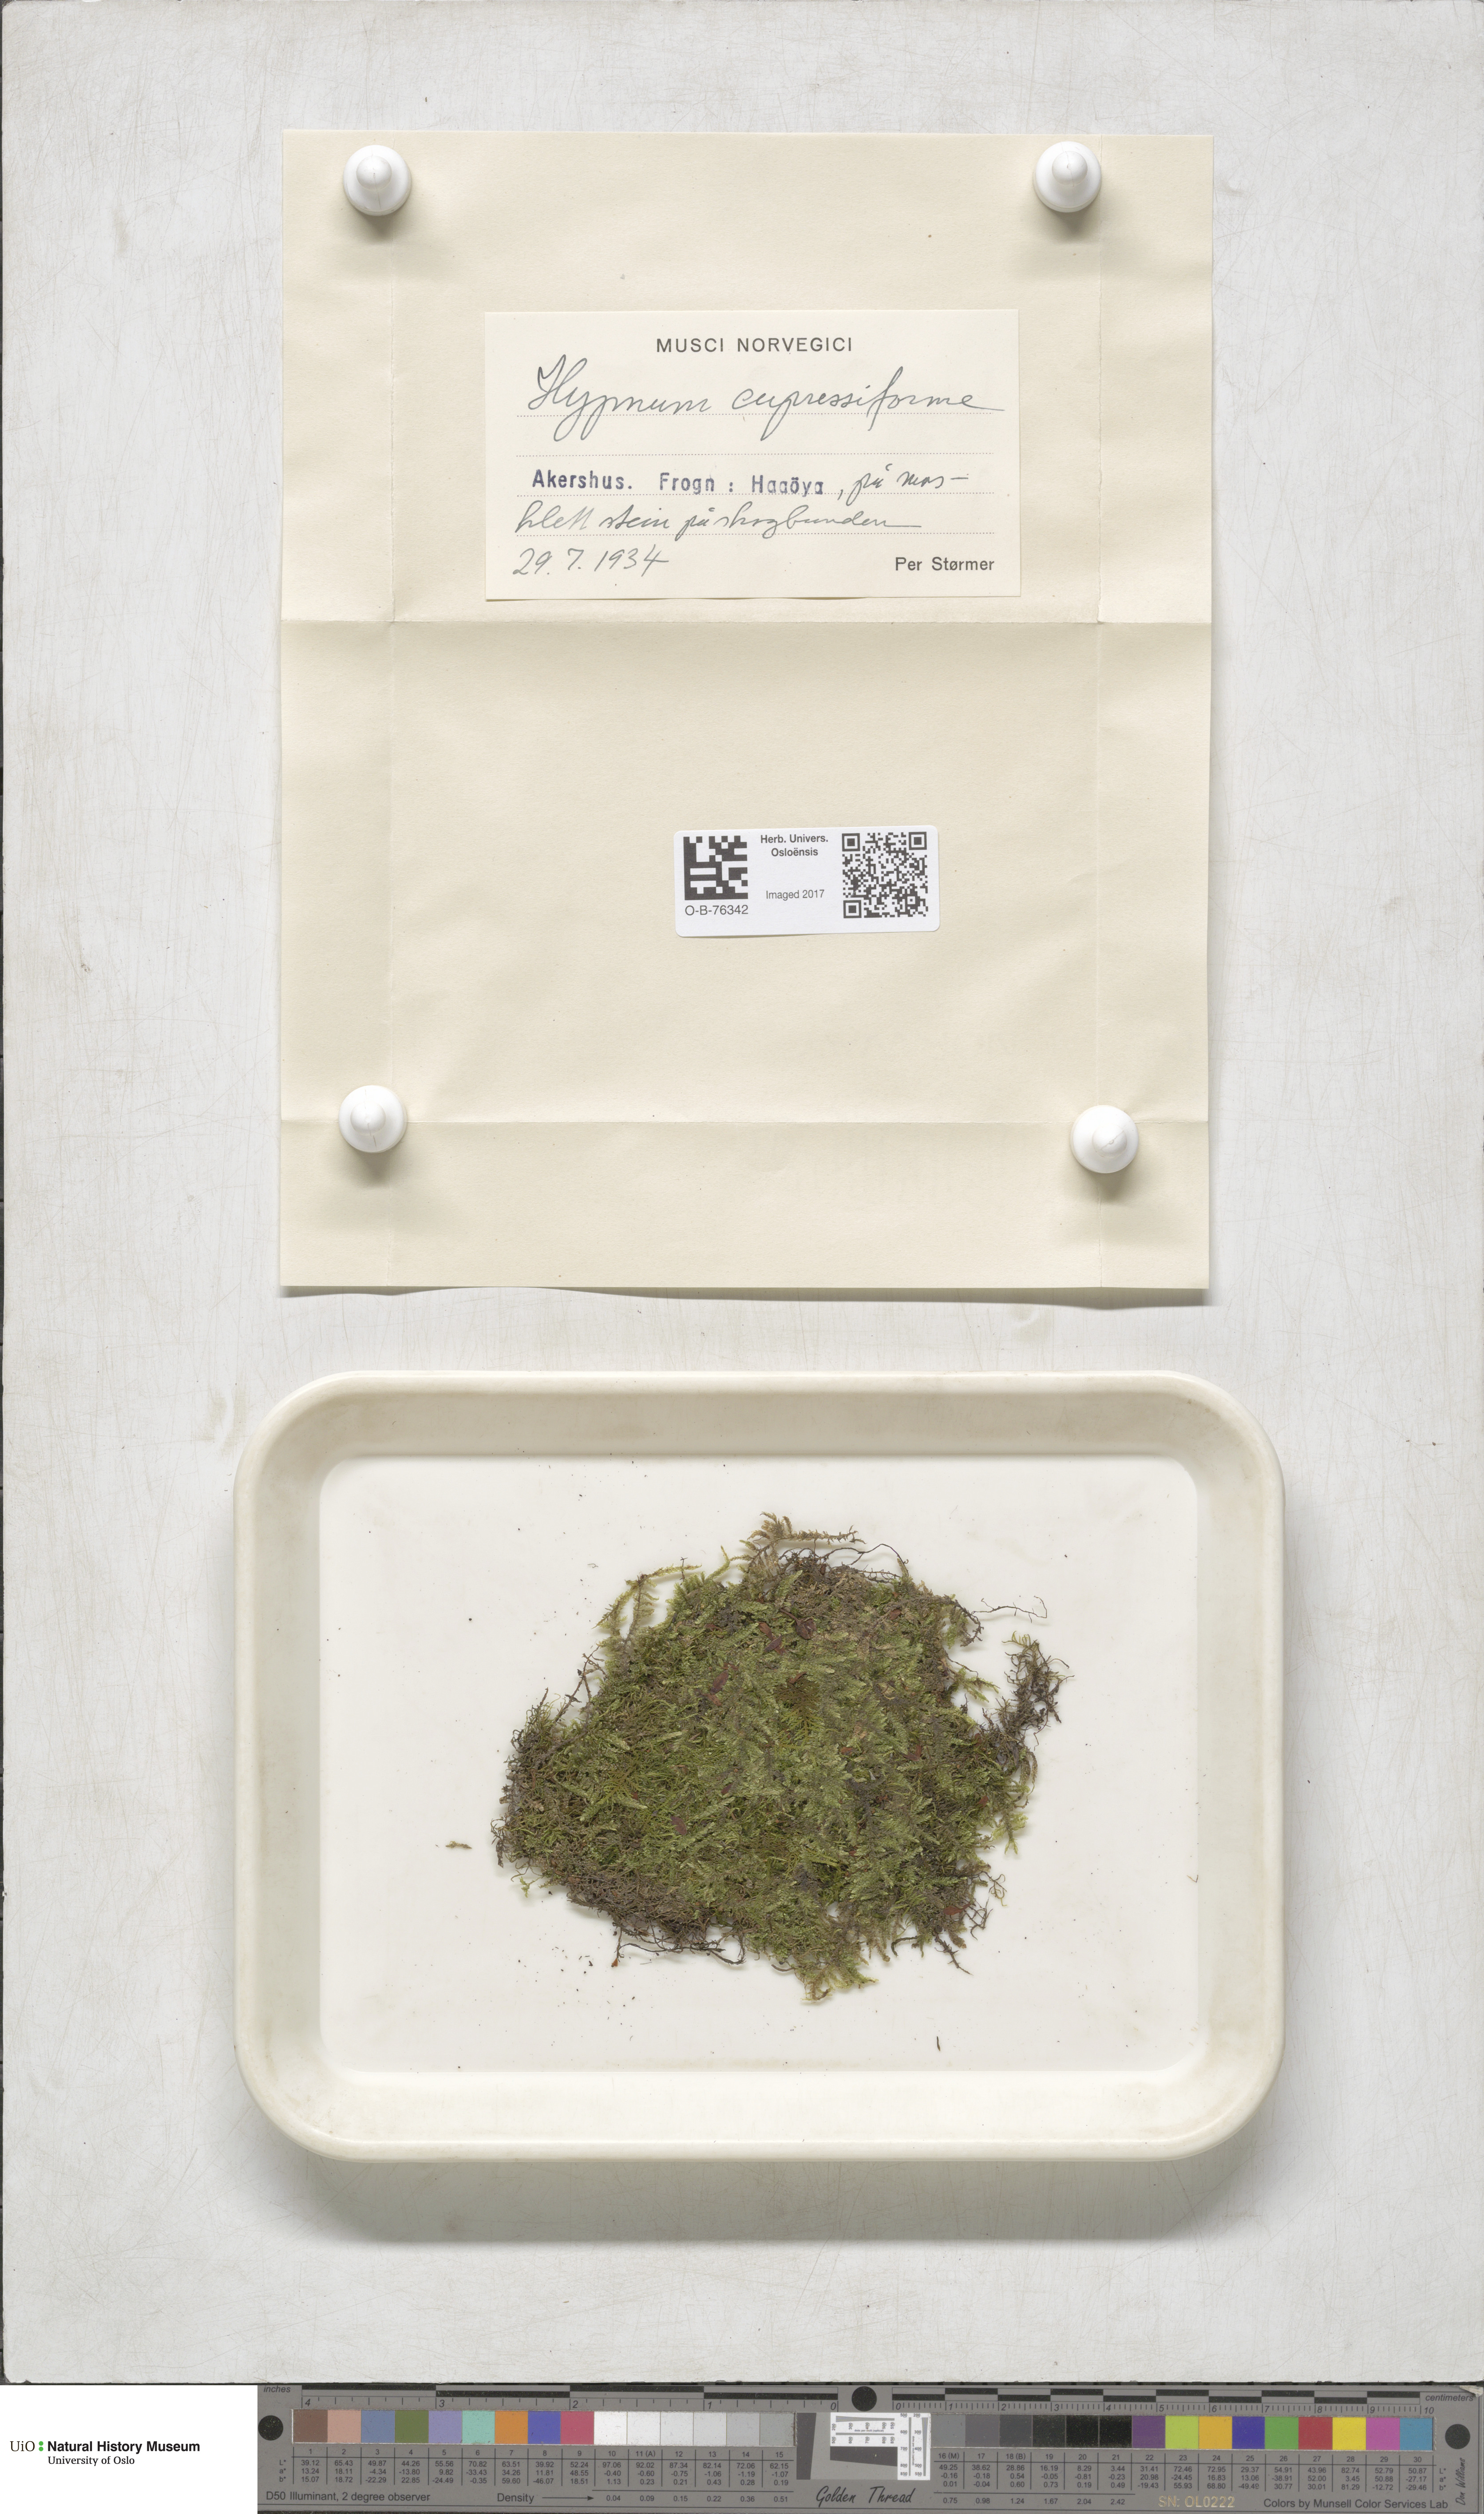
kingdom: Plantae
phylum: Bryophyta
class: Bryopsida
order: Hypnales
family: Hypnaceae
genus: Hypnum
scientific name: Hypnum cupressiforme
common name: Cypress-leaved plait-moss
